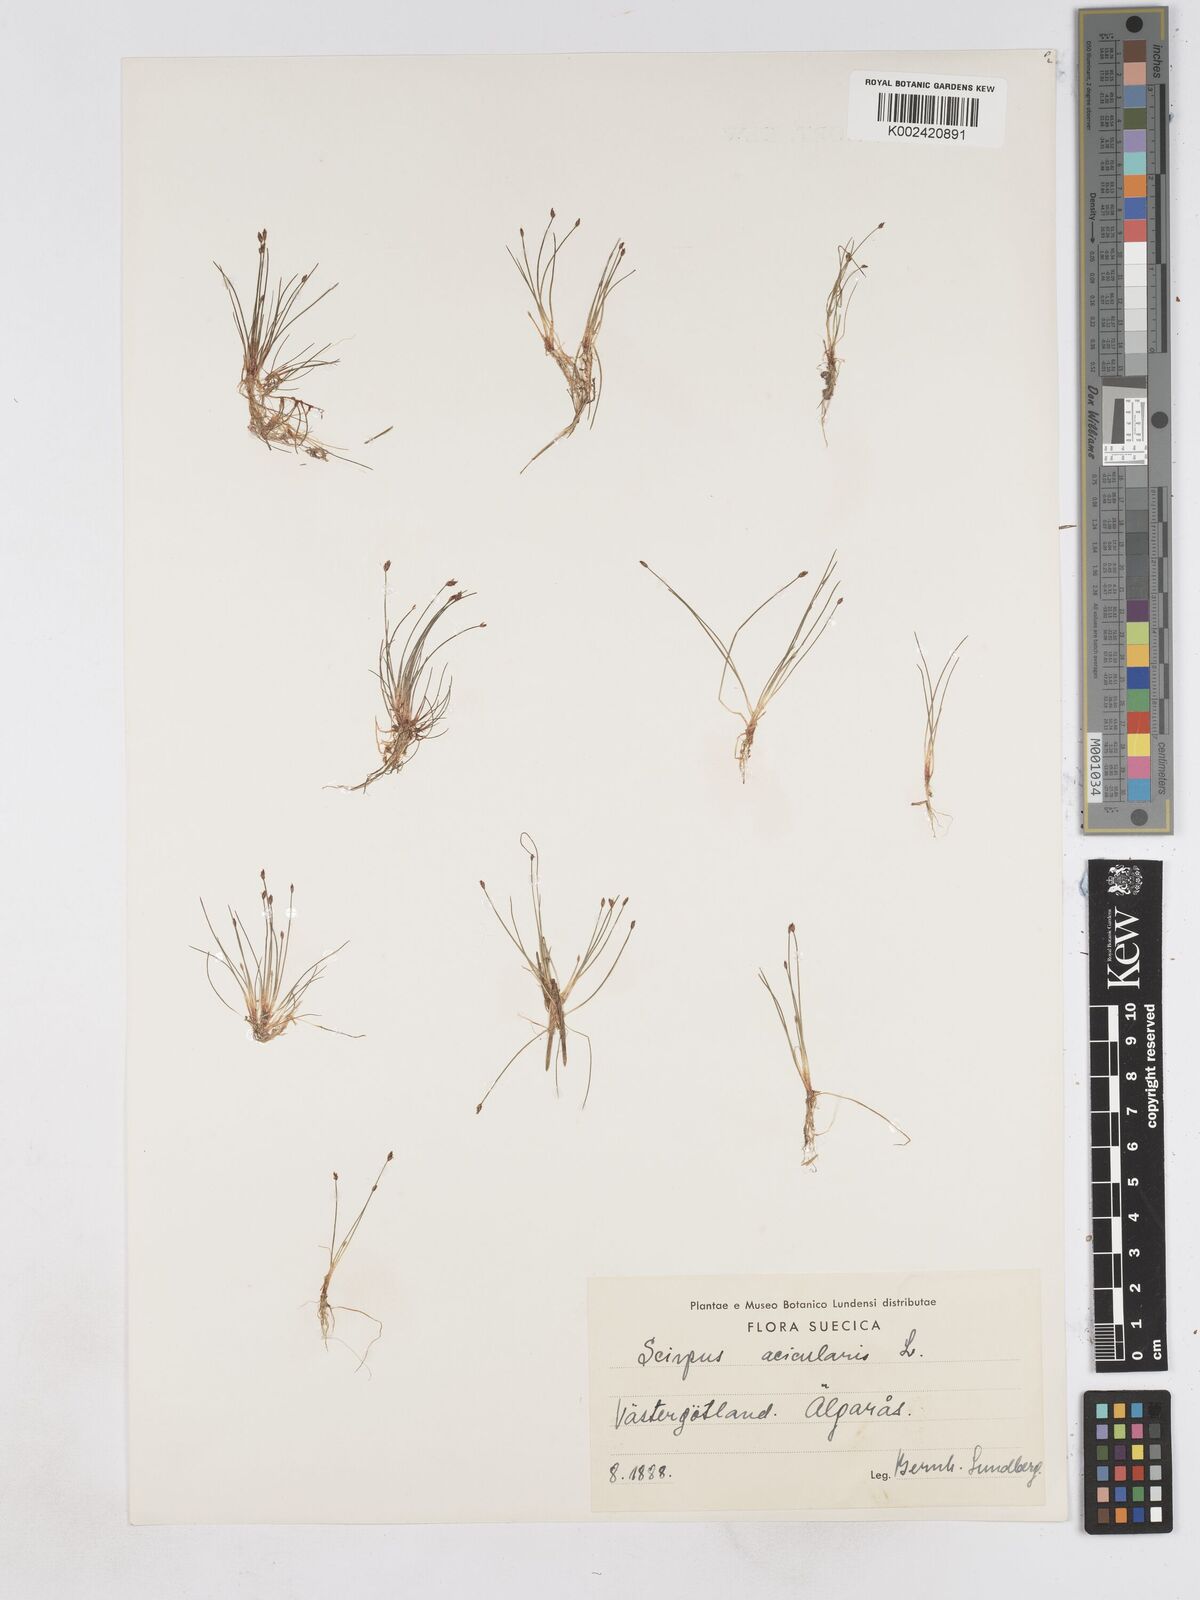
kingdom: Plantae
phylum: Tracheophyta
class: Liliopsida
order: Poales
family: Cyperaceae
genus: Eleocharis
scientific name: Eleocharis acicularis
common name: Needle spike-rush
